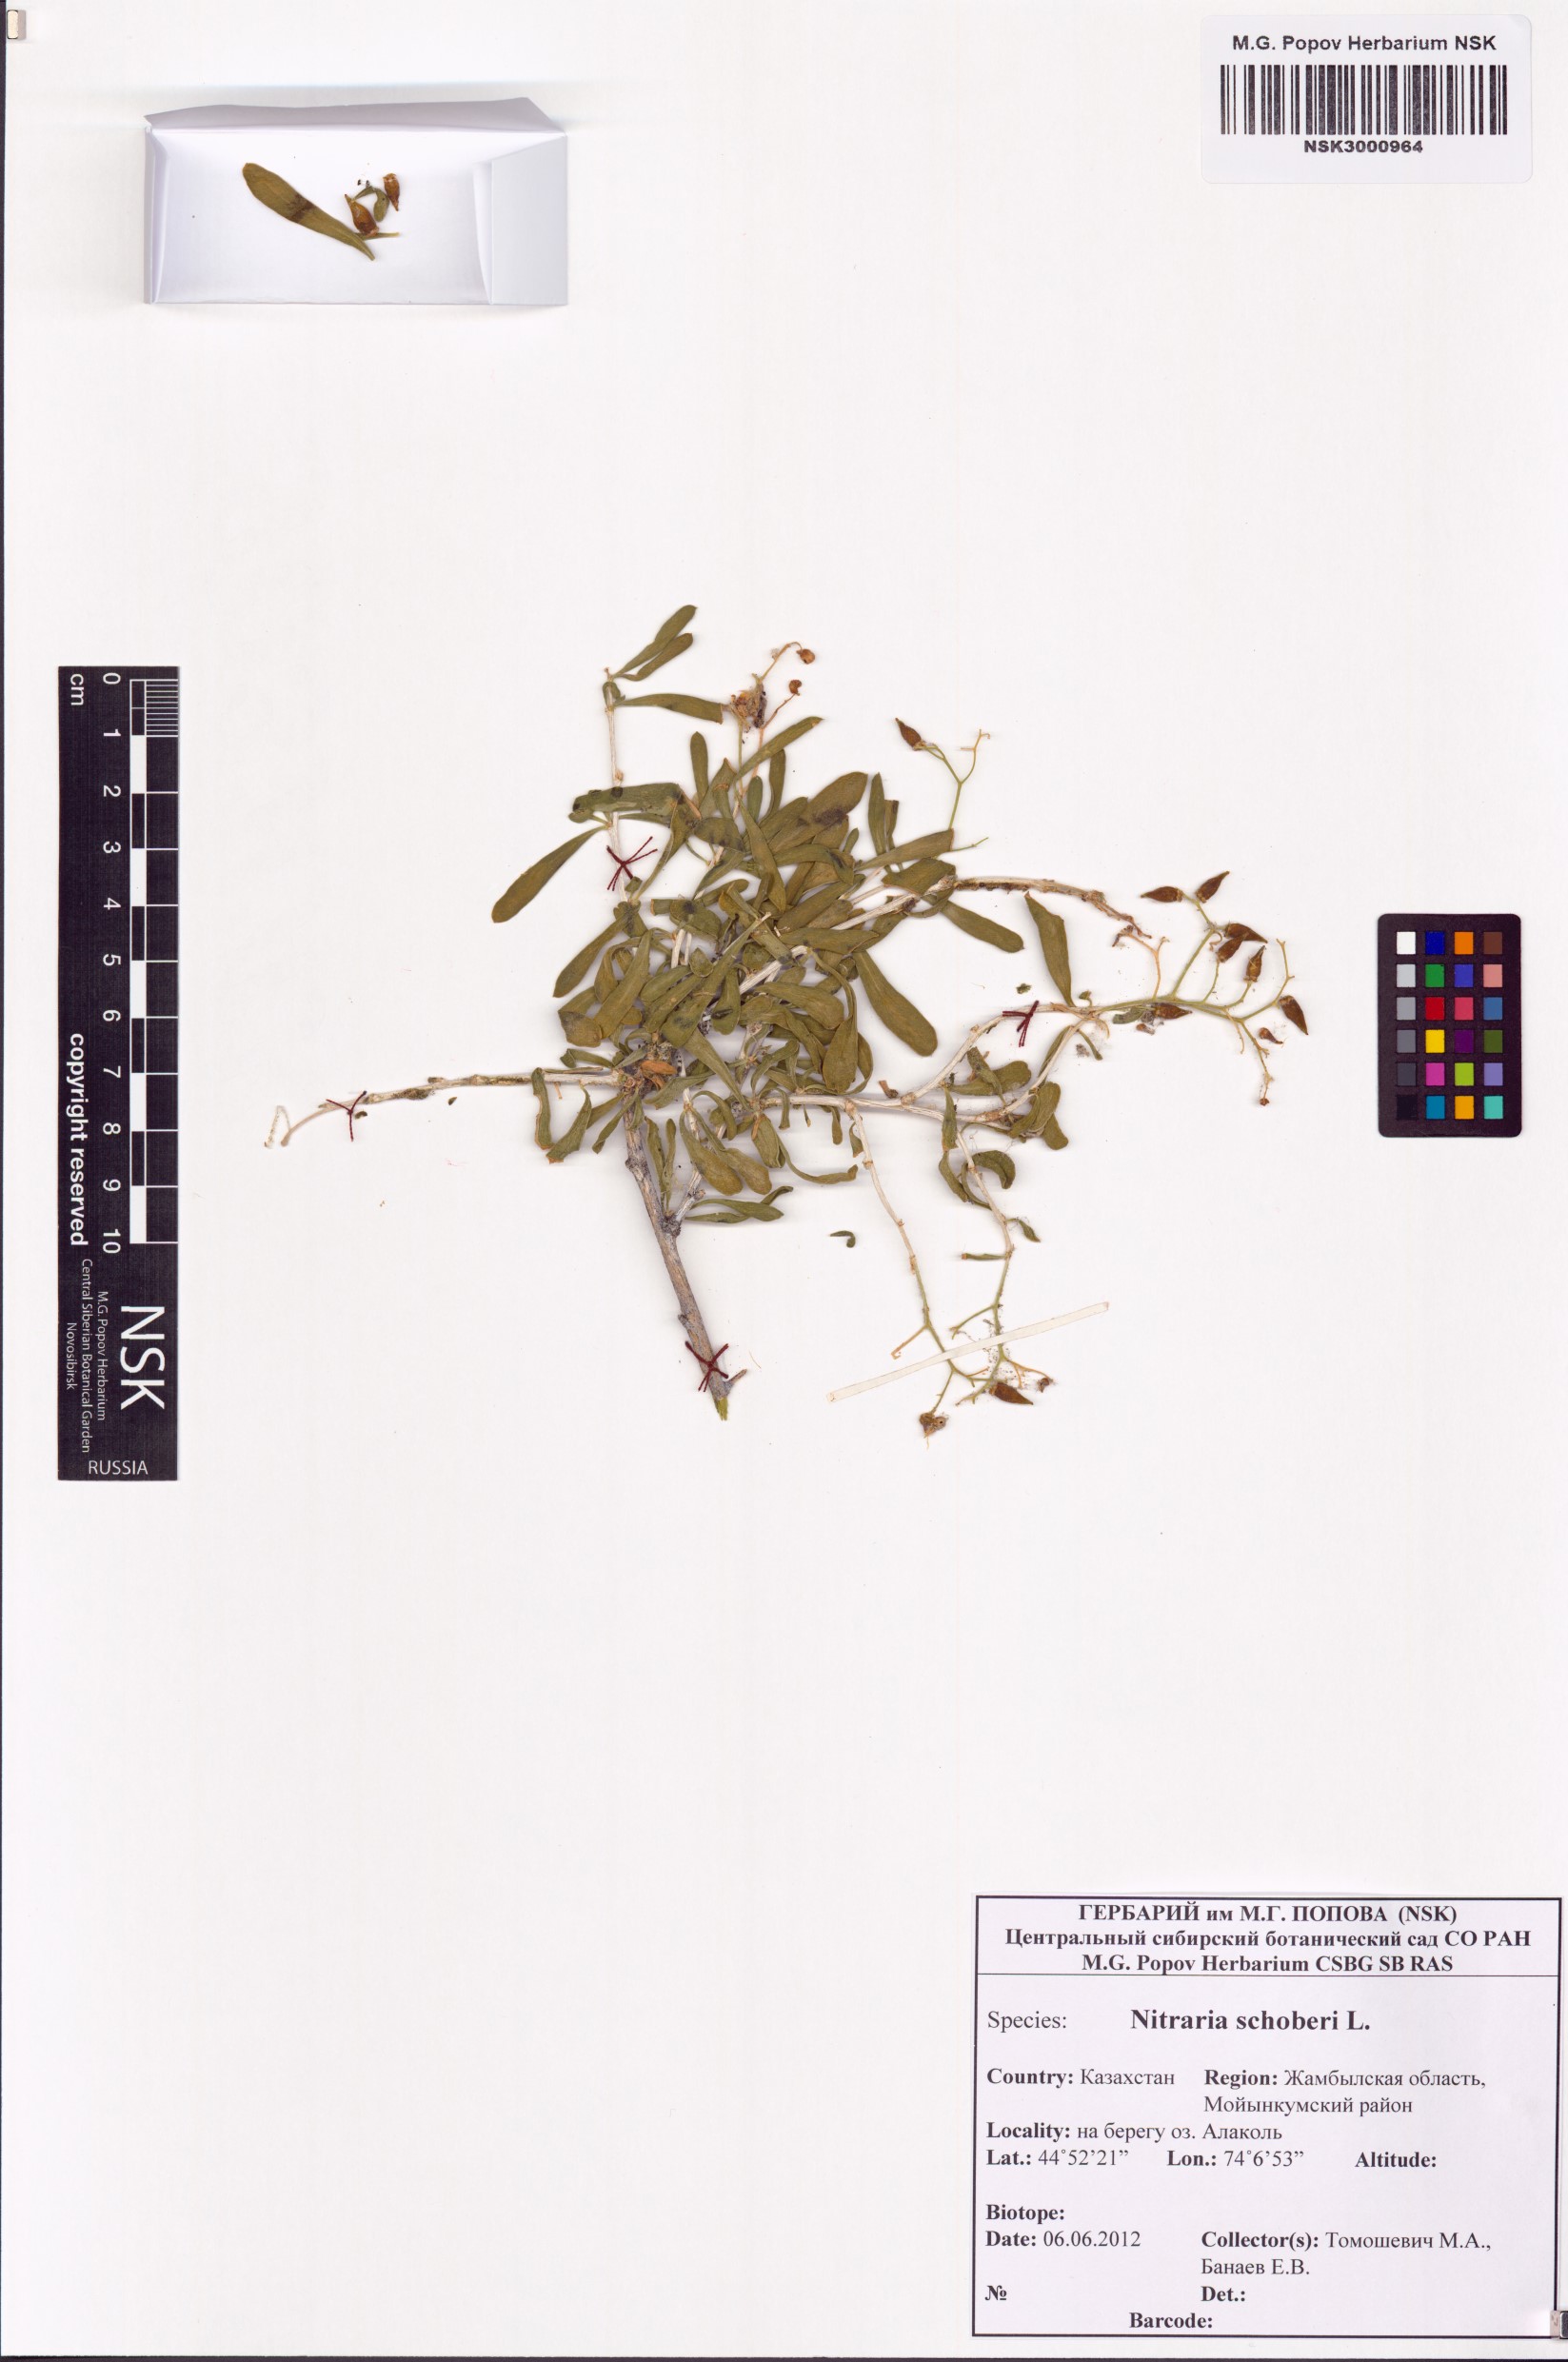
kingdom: Plantae
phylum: Tracheophyta
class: Magnoliopsida
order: Sapindales
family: Nitrariaceae
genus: Nitraria
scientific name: Nitraria schoberi
